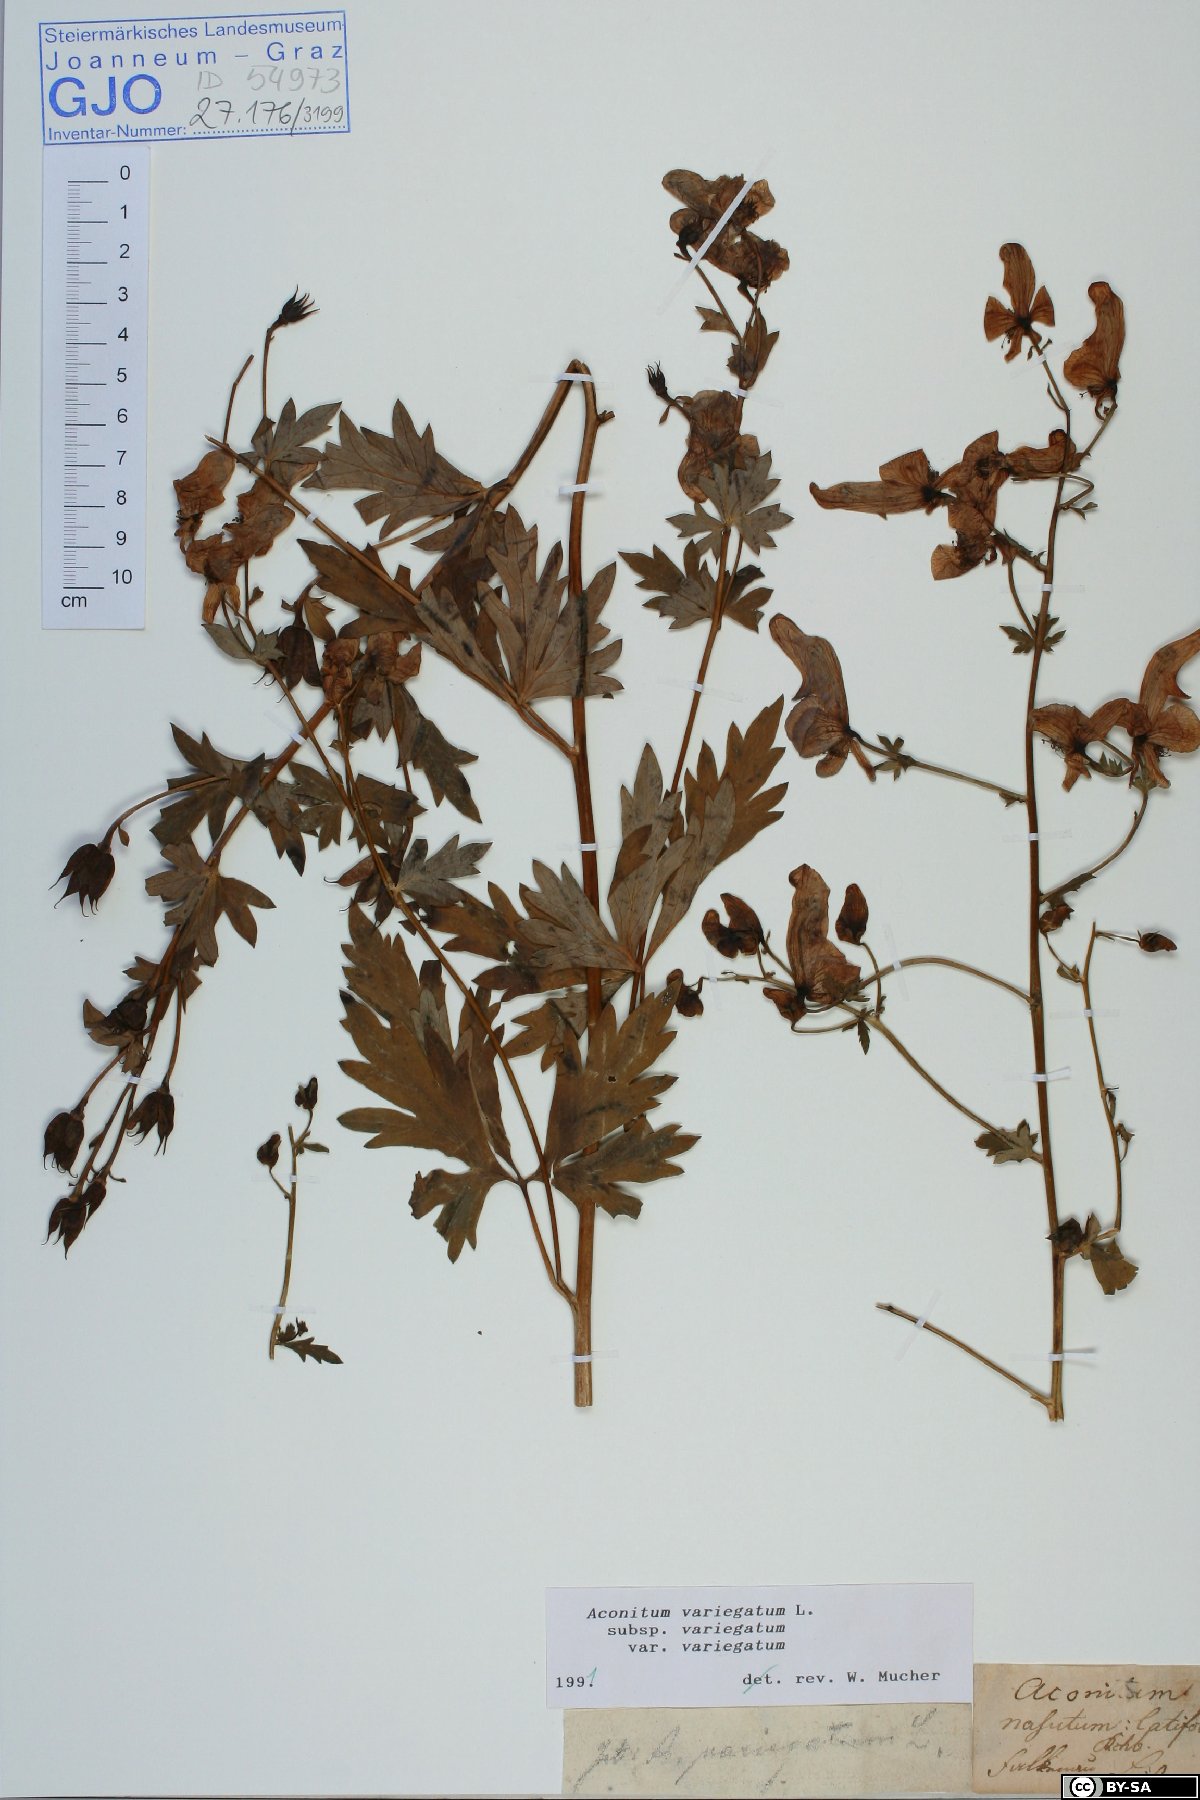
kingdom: Plantae
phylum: Tracheophyta
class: Magnoliopsida
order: Ranunculales
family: Ranunculaceae
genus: Aconitum
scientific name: Aconitum variegatum
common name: Manchurian monkshood
